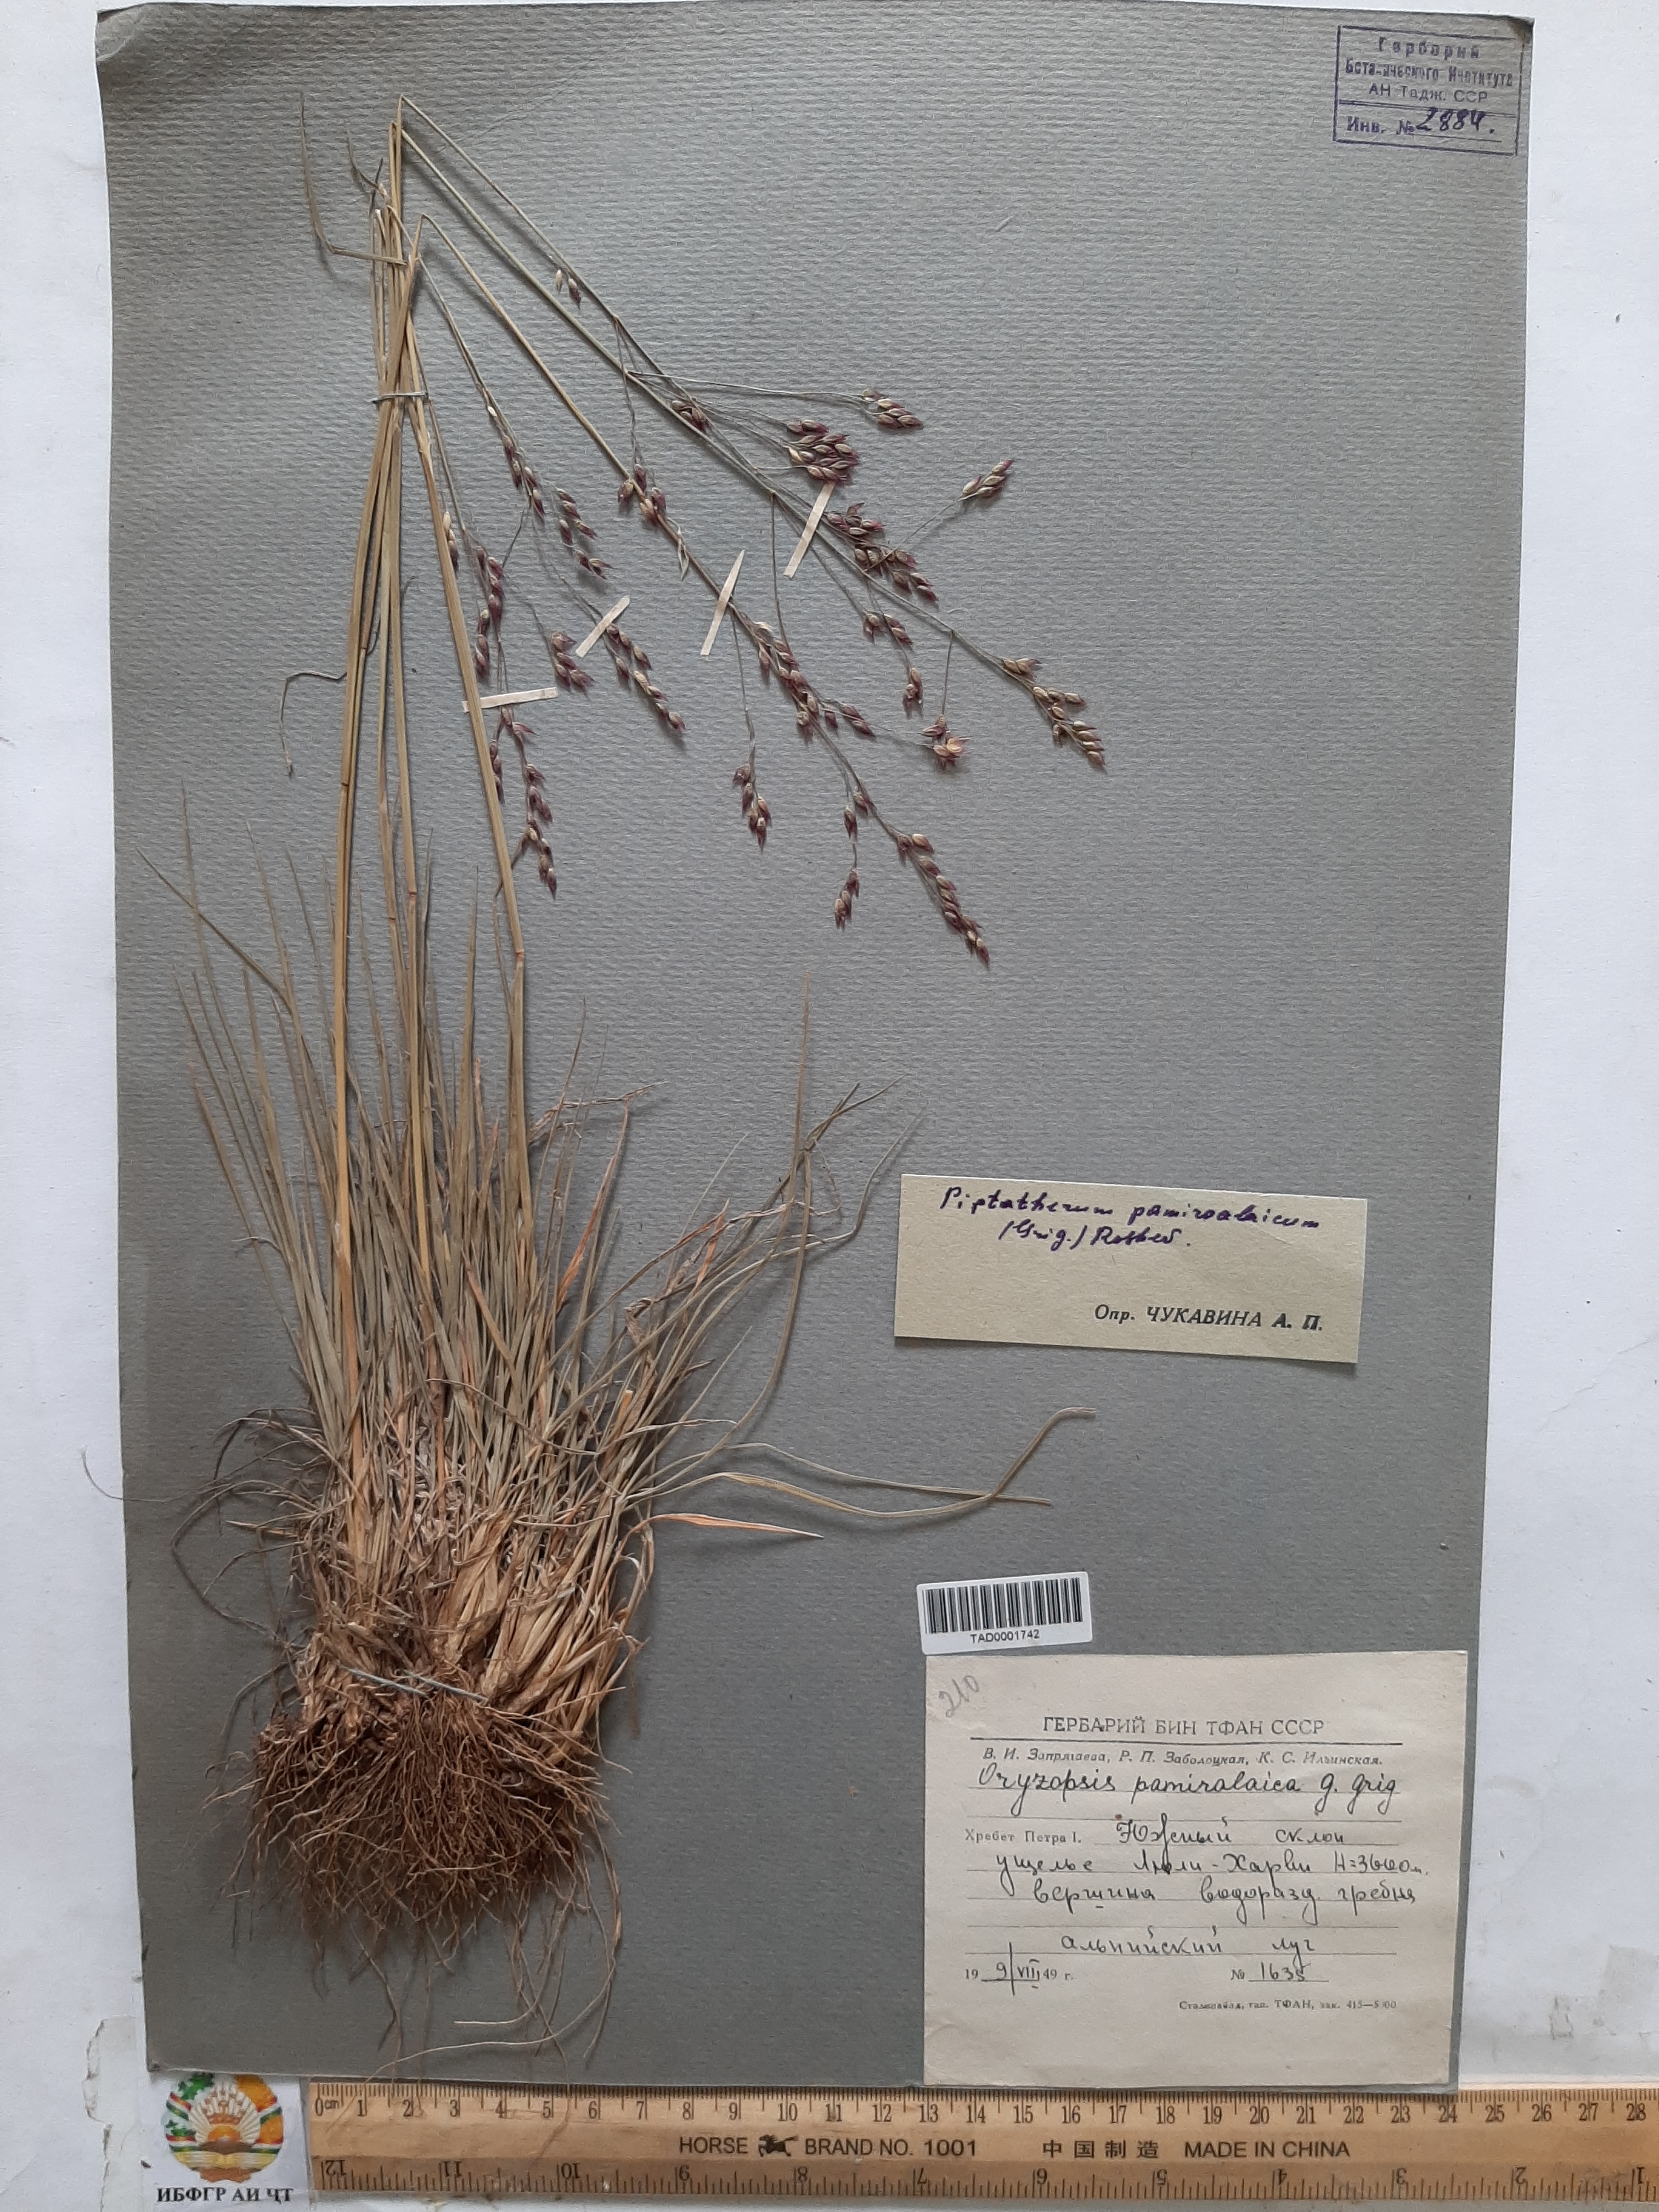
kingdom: Plantae
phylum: Tracheophyta
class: Liliopsida
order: Poales
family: Poaceae
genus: Piptatherum
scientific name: Piptatherum pamiralaicum
